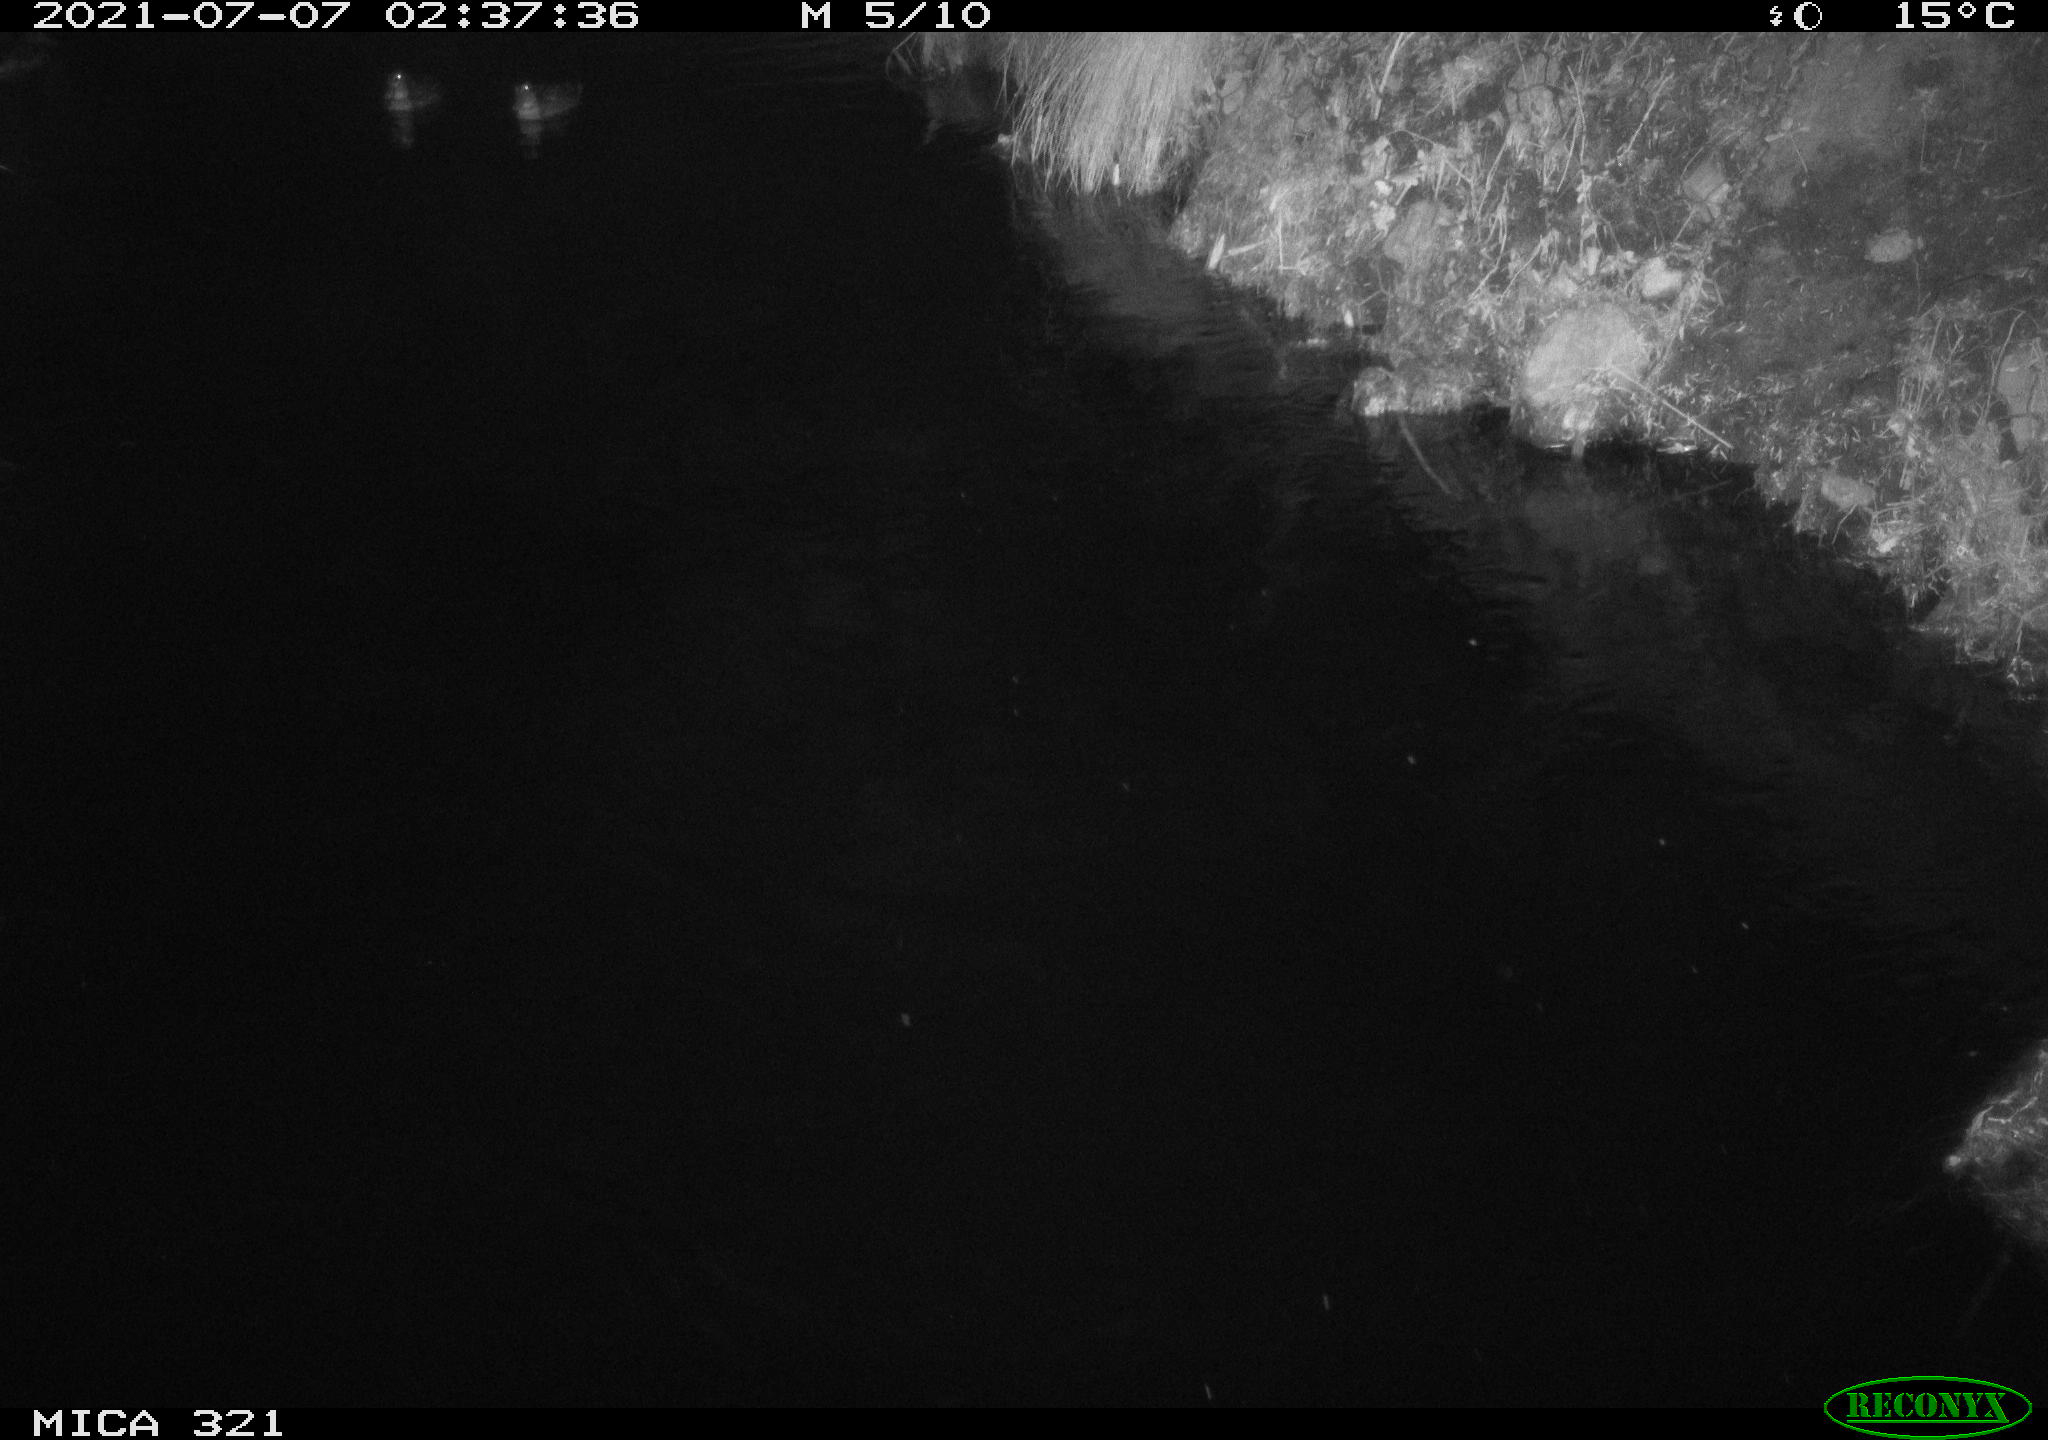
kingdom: Animalia
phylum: Chordata
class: Aves
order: Anseriformes
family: Anatidae
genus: Anas
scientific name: Anas platyrhynchos
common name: Mallard
